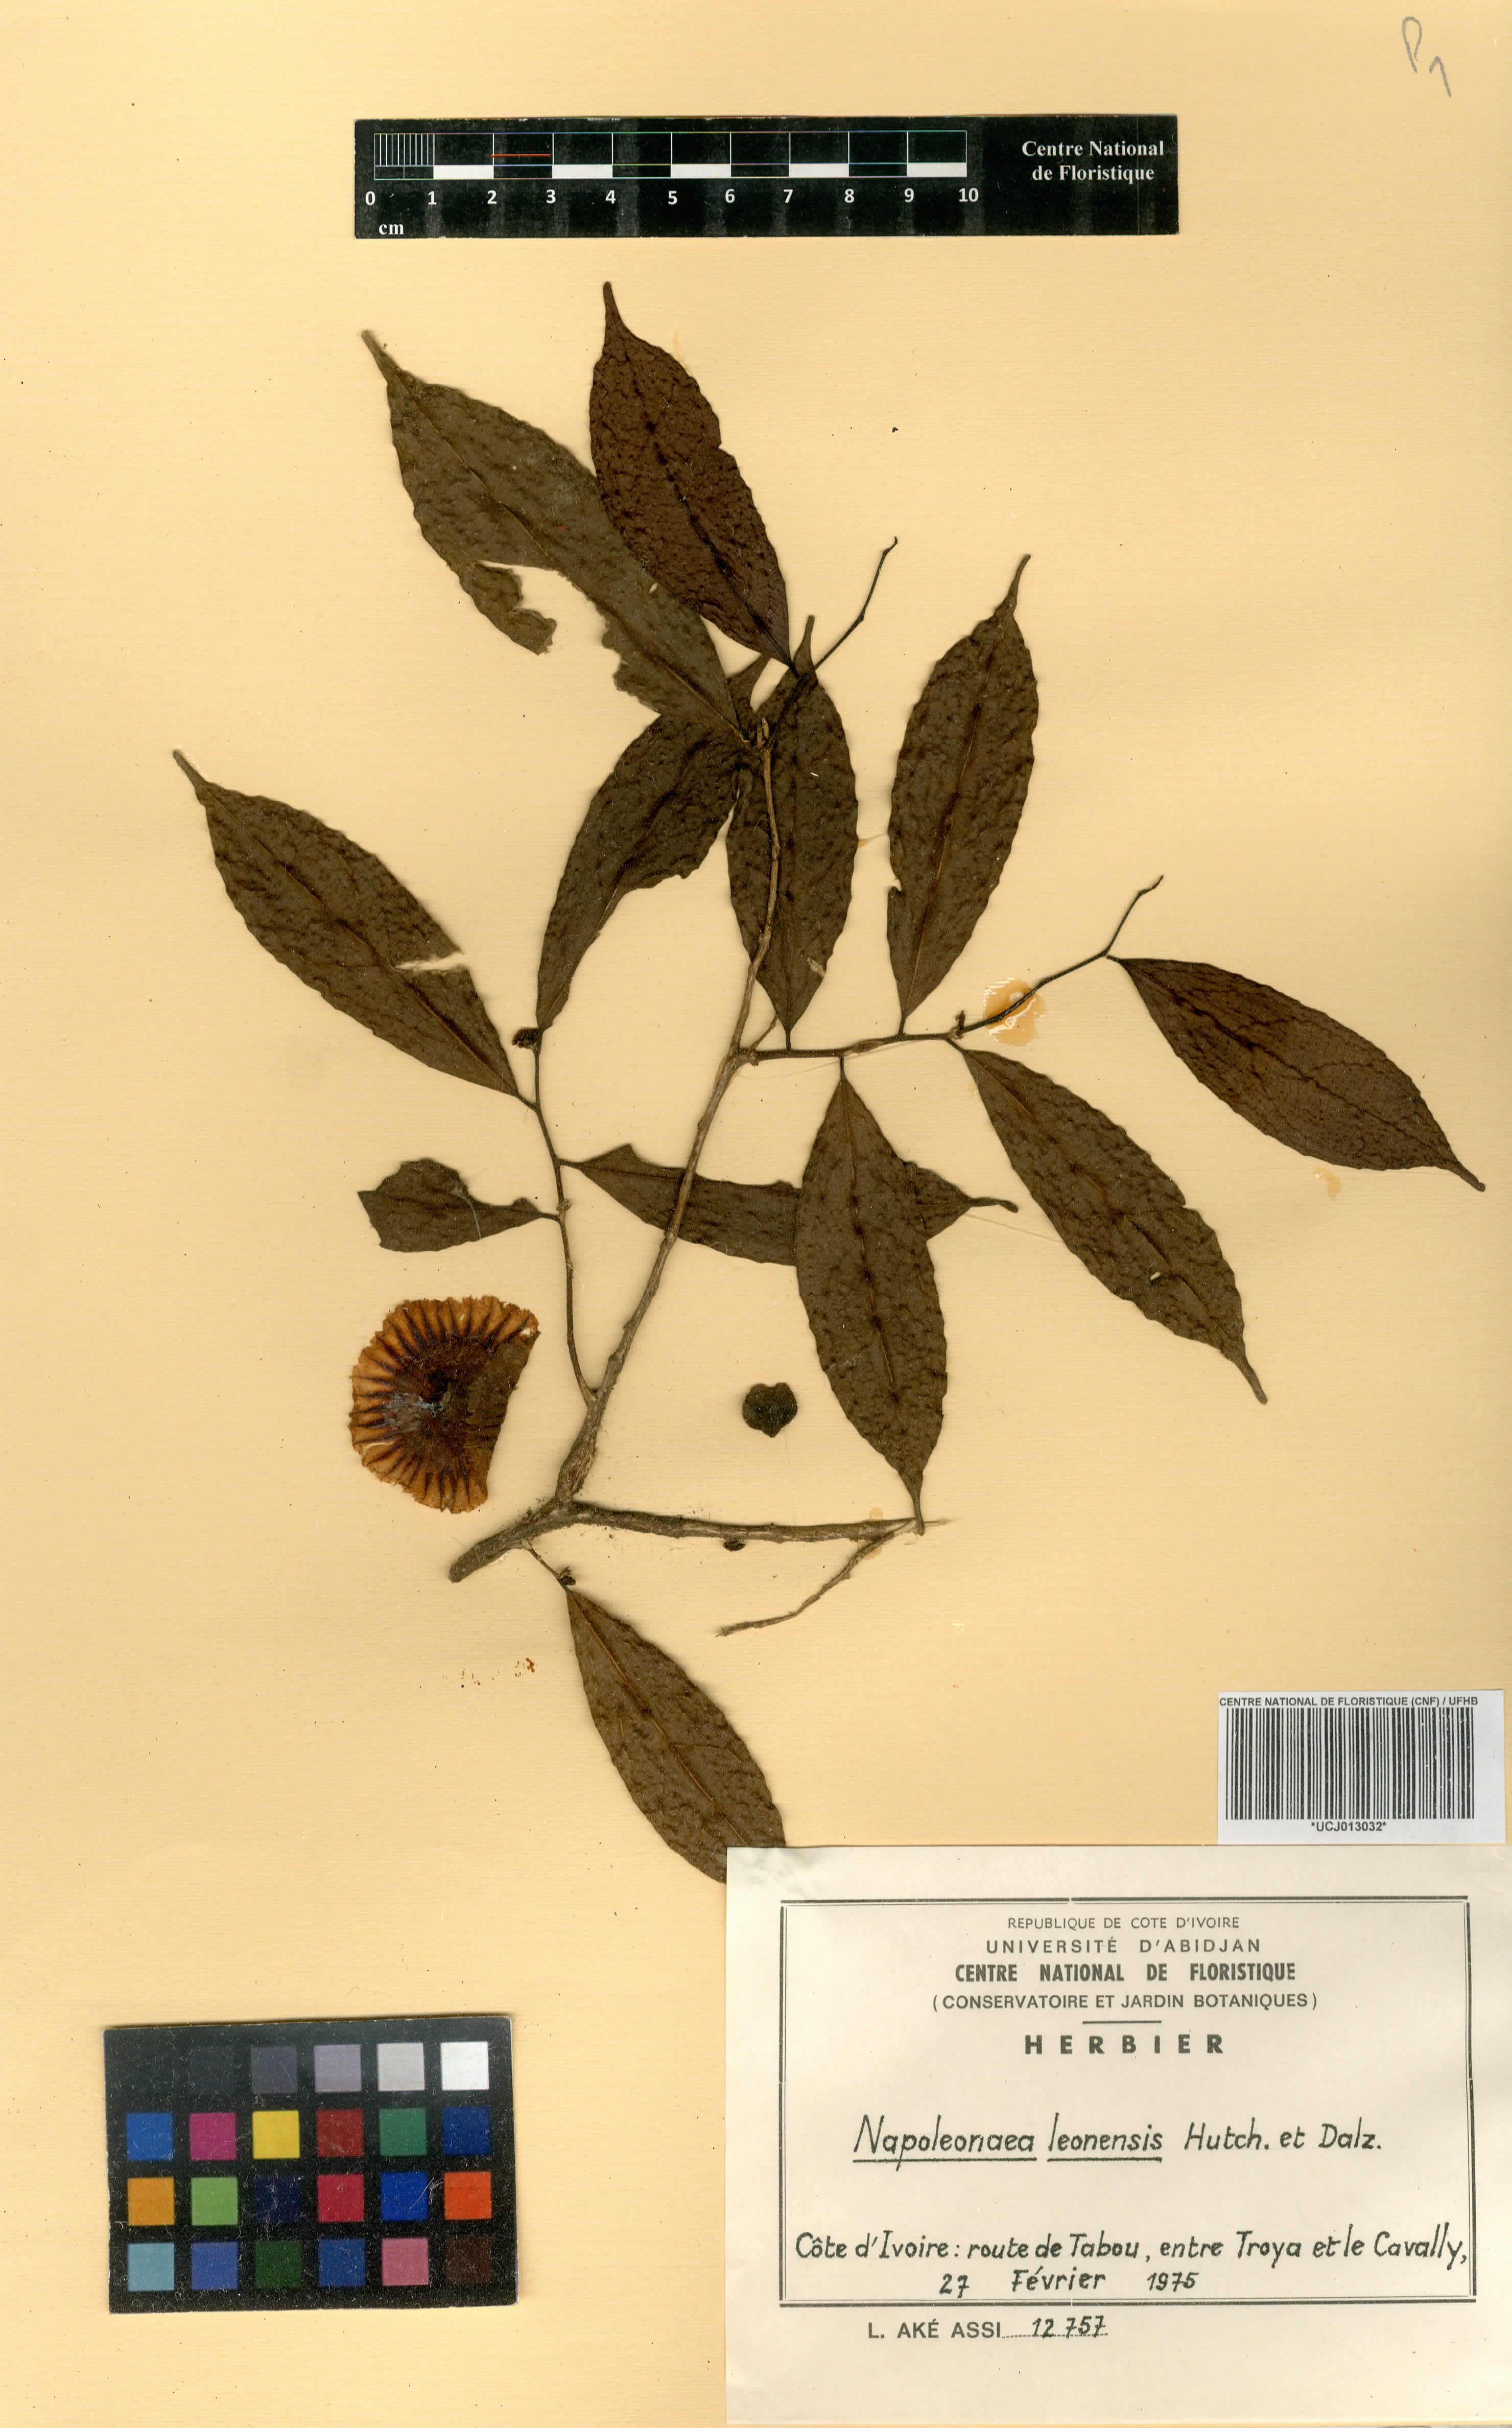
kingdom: Plantae
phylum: Tracheophyta
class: Magnoliopsida
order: Ericales
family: Lecythidaceae
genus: Napoleonaea
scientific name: Napoleonaea leonensis
